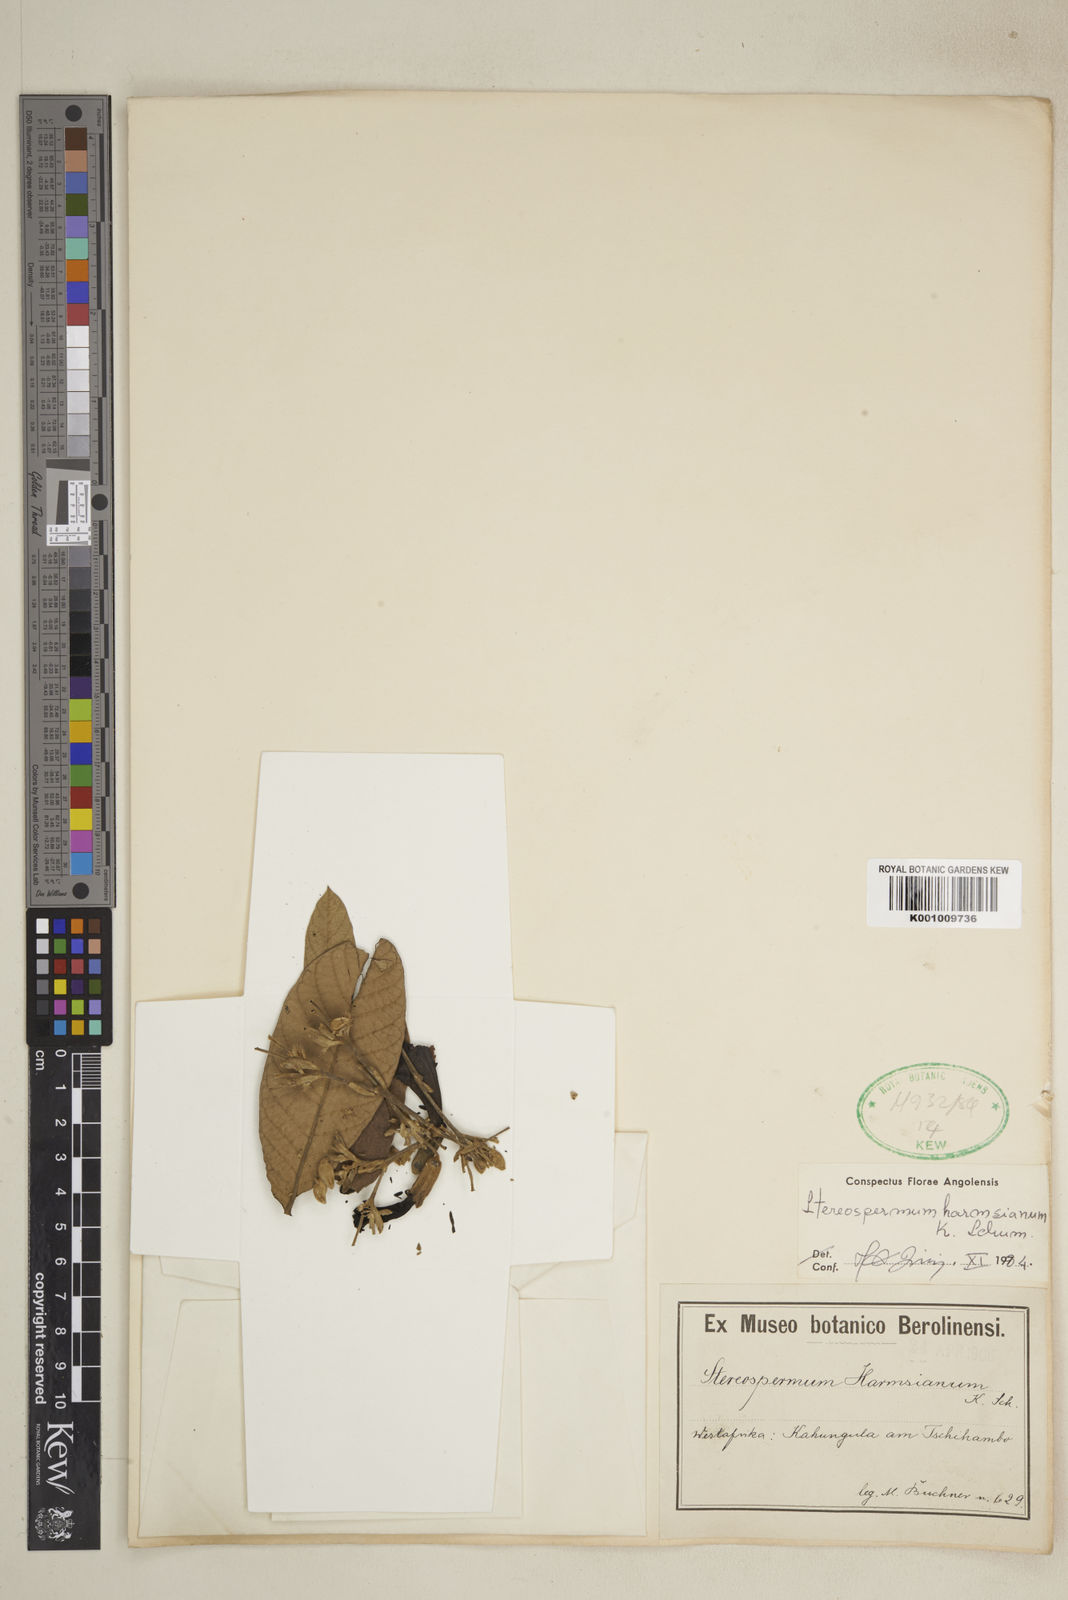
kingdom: Plantae
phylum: Tracheophyta
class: Magnoliopsida
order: Lamiales
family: Bignoniaceae
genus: Stereospermum
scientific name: Stereospermum harmsianum
